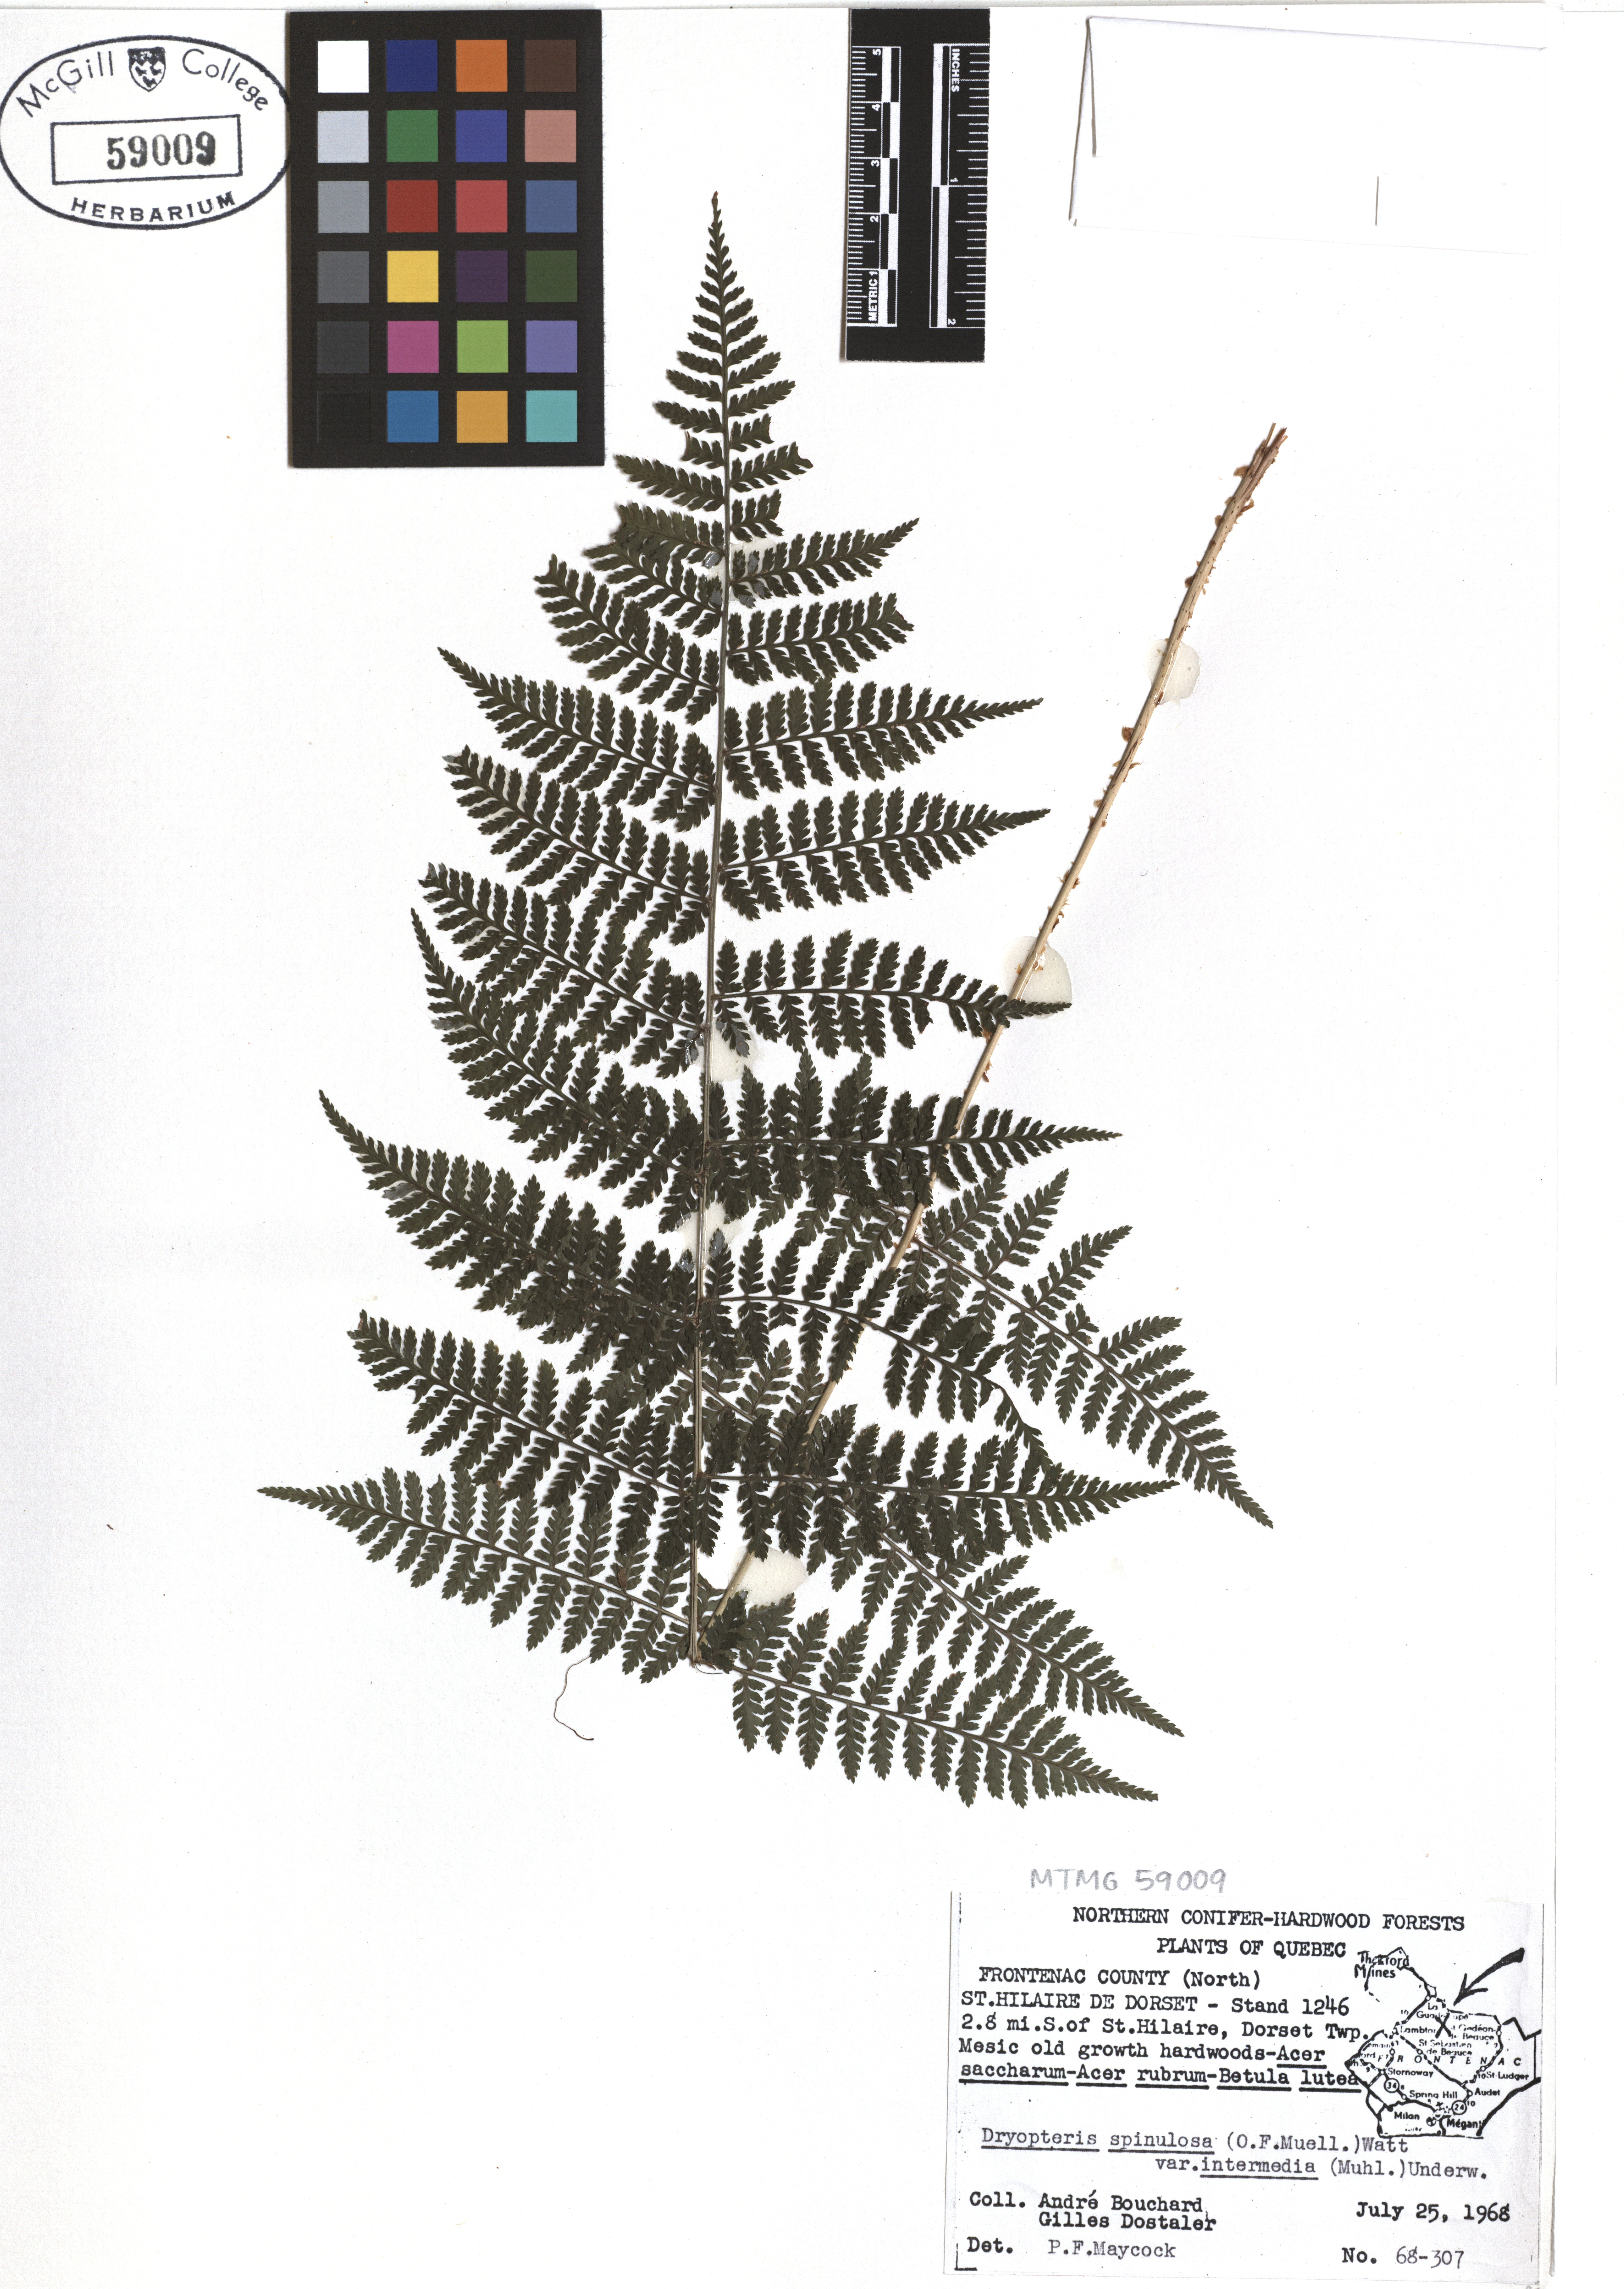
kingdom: Plantae
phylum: Tracheophyta
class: Polypodiopsida
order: Polypodiales
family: Dryopteridaceae
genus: Dryopteris
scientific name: Dryopteris intermedia
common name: Evergreen wood fern
